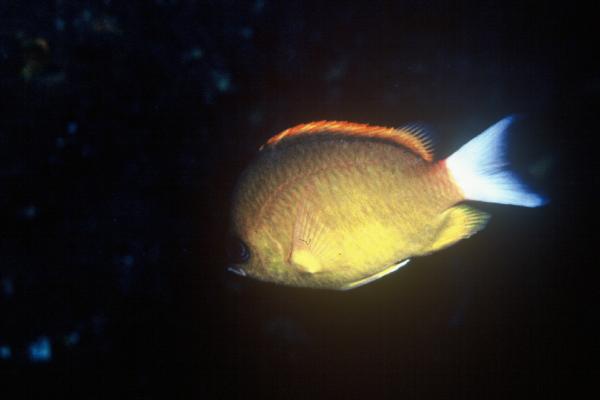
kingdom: Animalia
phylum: Chordata
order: Perciformes
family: Pomacentridae
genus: Chromis
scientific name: Chromis analis
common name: Yellow chromis
